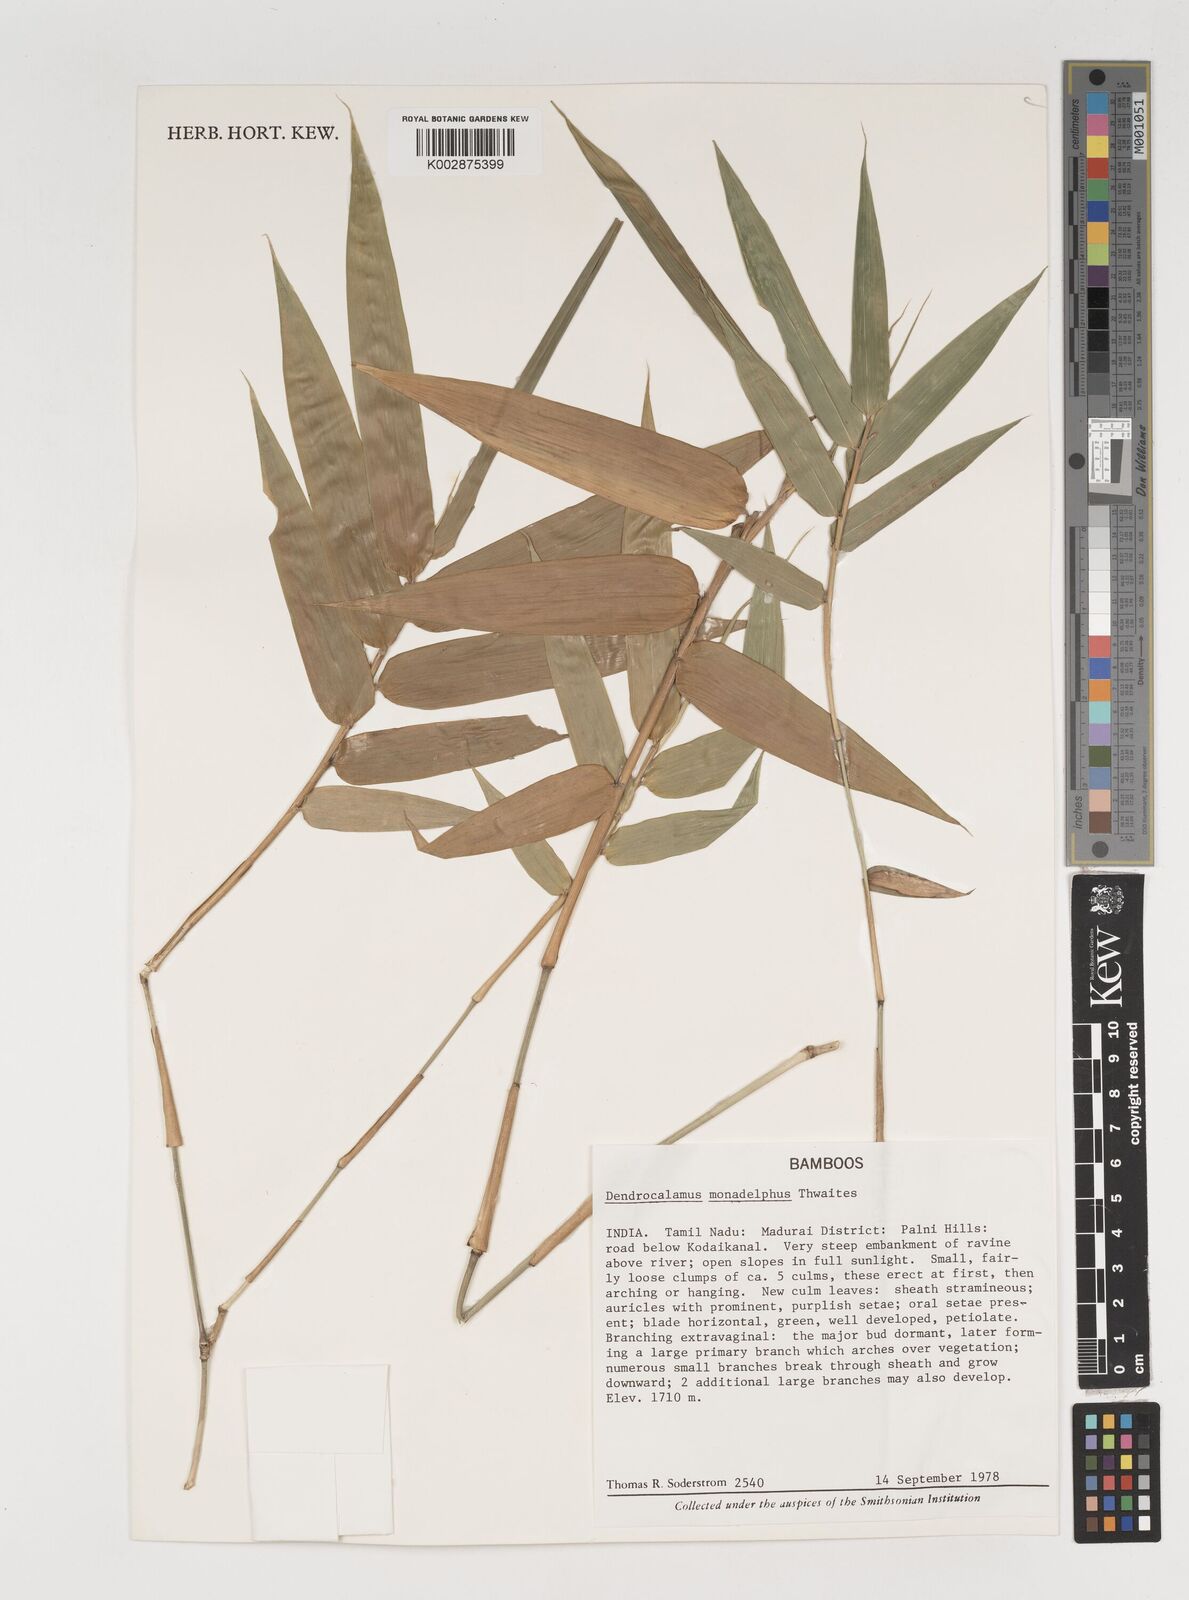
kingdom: Plantae
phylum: Tracheophyta
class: Liliopsida
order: Poales
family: Poaceae
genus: Dendrocalamus
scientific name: Dendrocalamus
